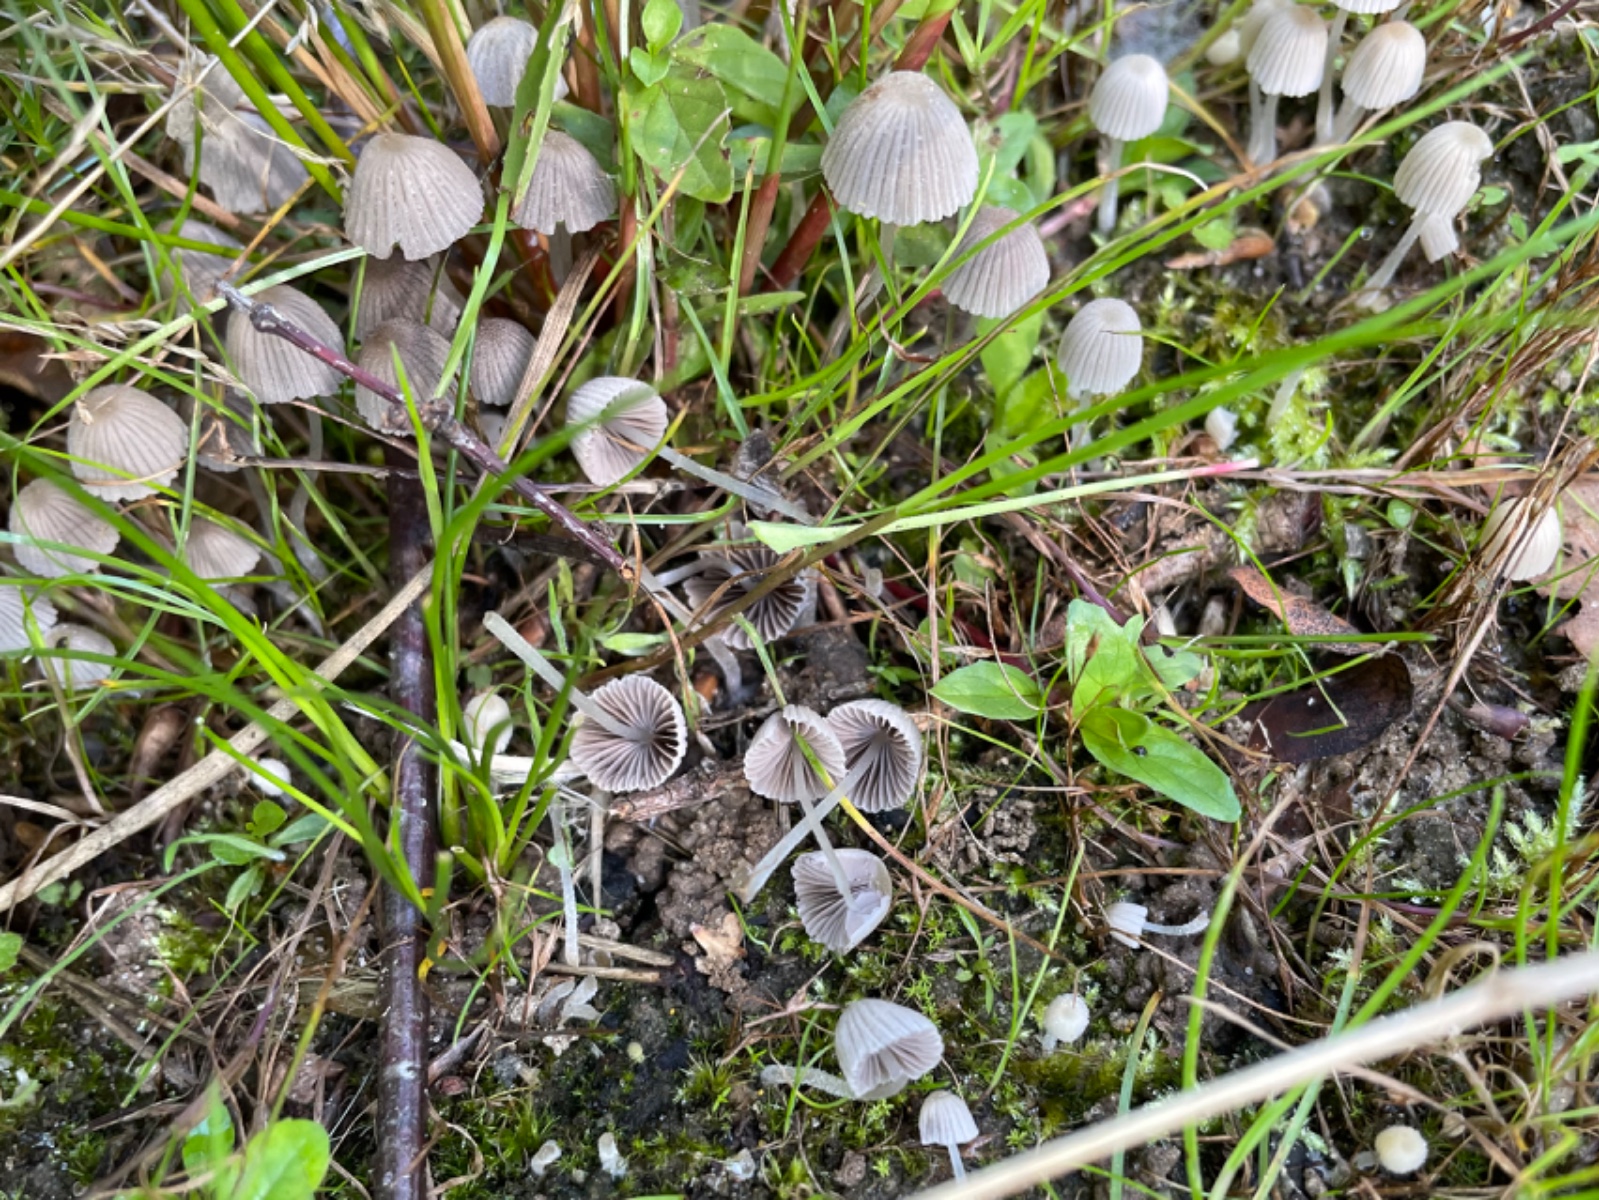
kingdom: Fungi
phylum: Basidiomycota
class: Agaricomycetes
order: Agaricales
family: Psathyrellaceae
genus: Coprinellus
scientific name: Coprinellus disseminatus
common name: bredsået blækhat
